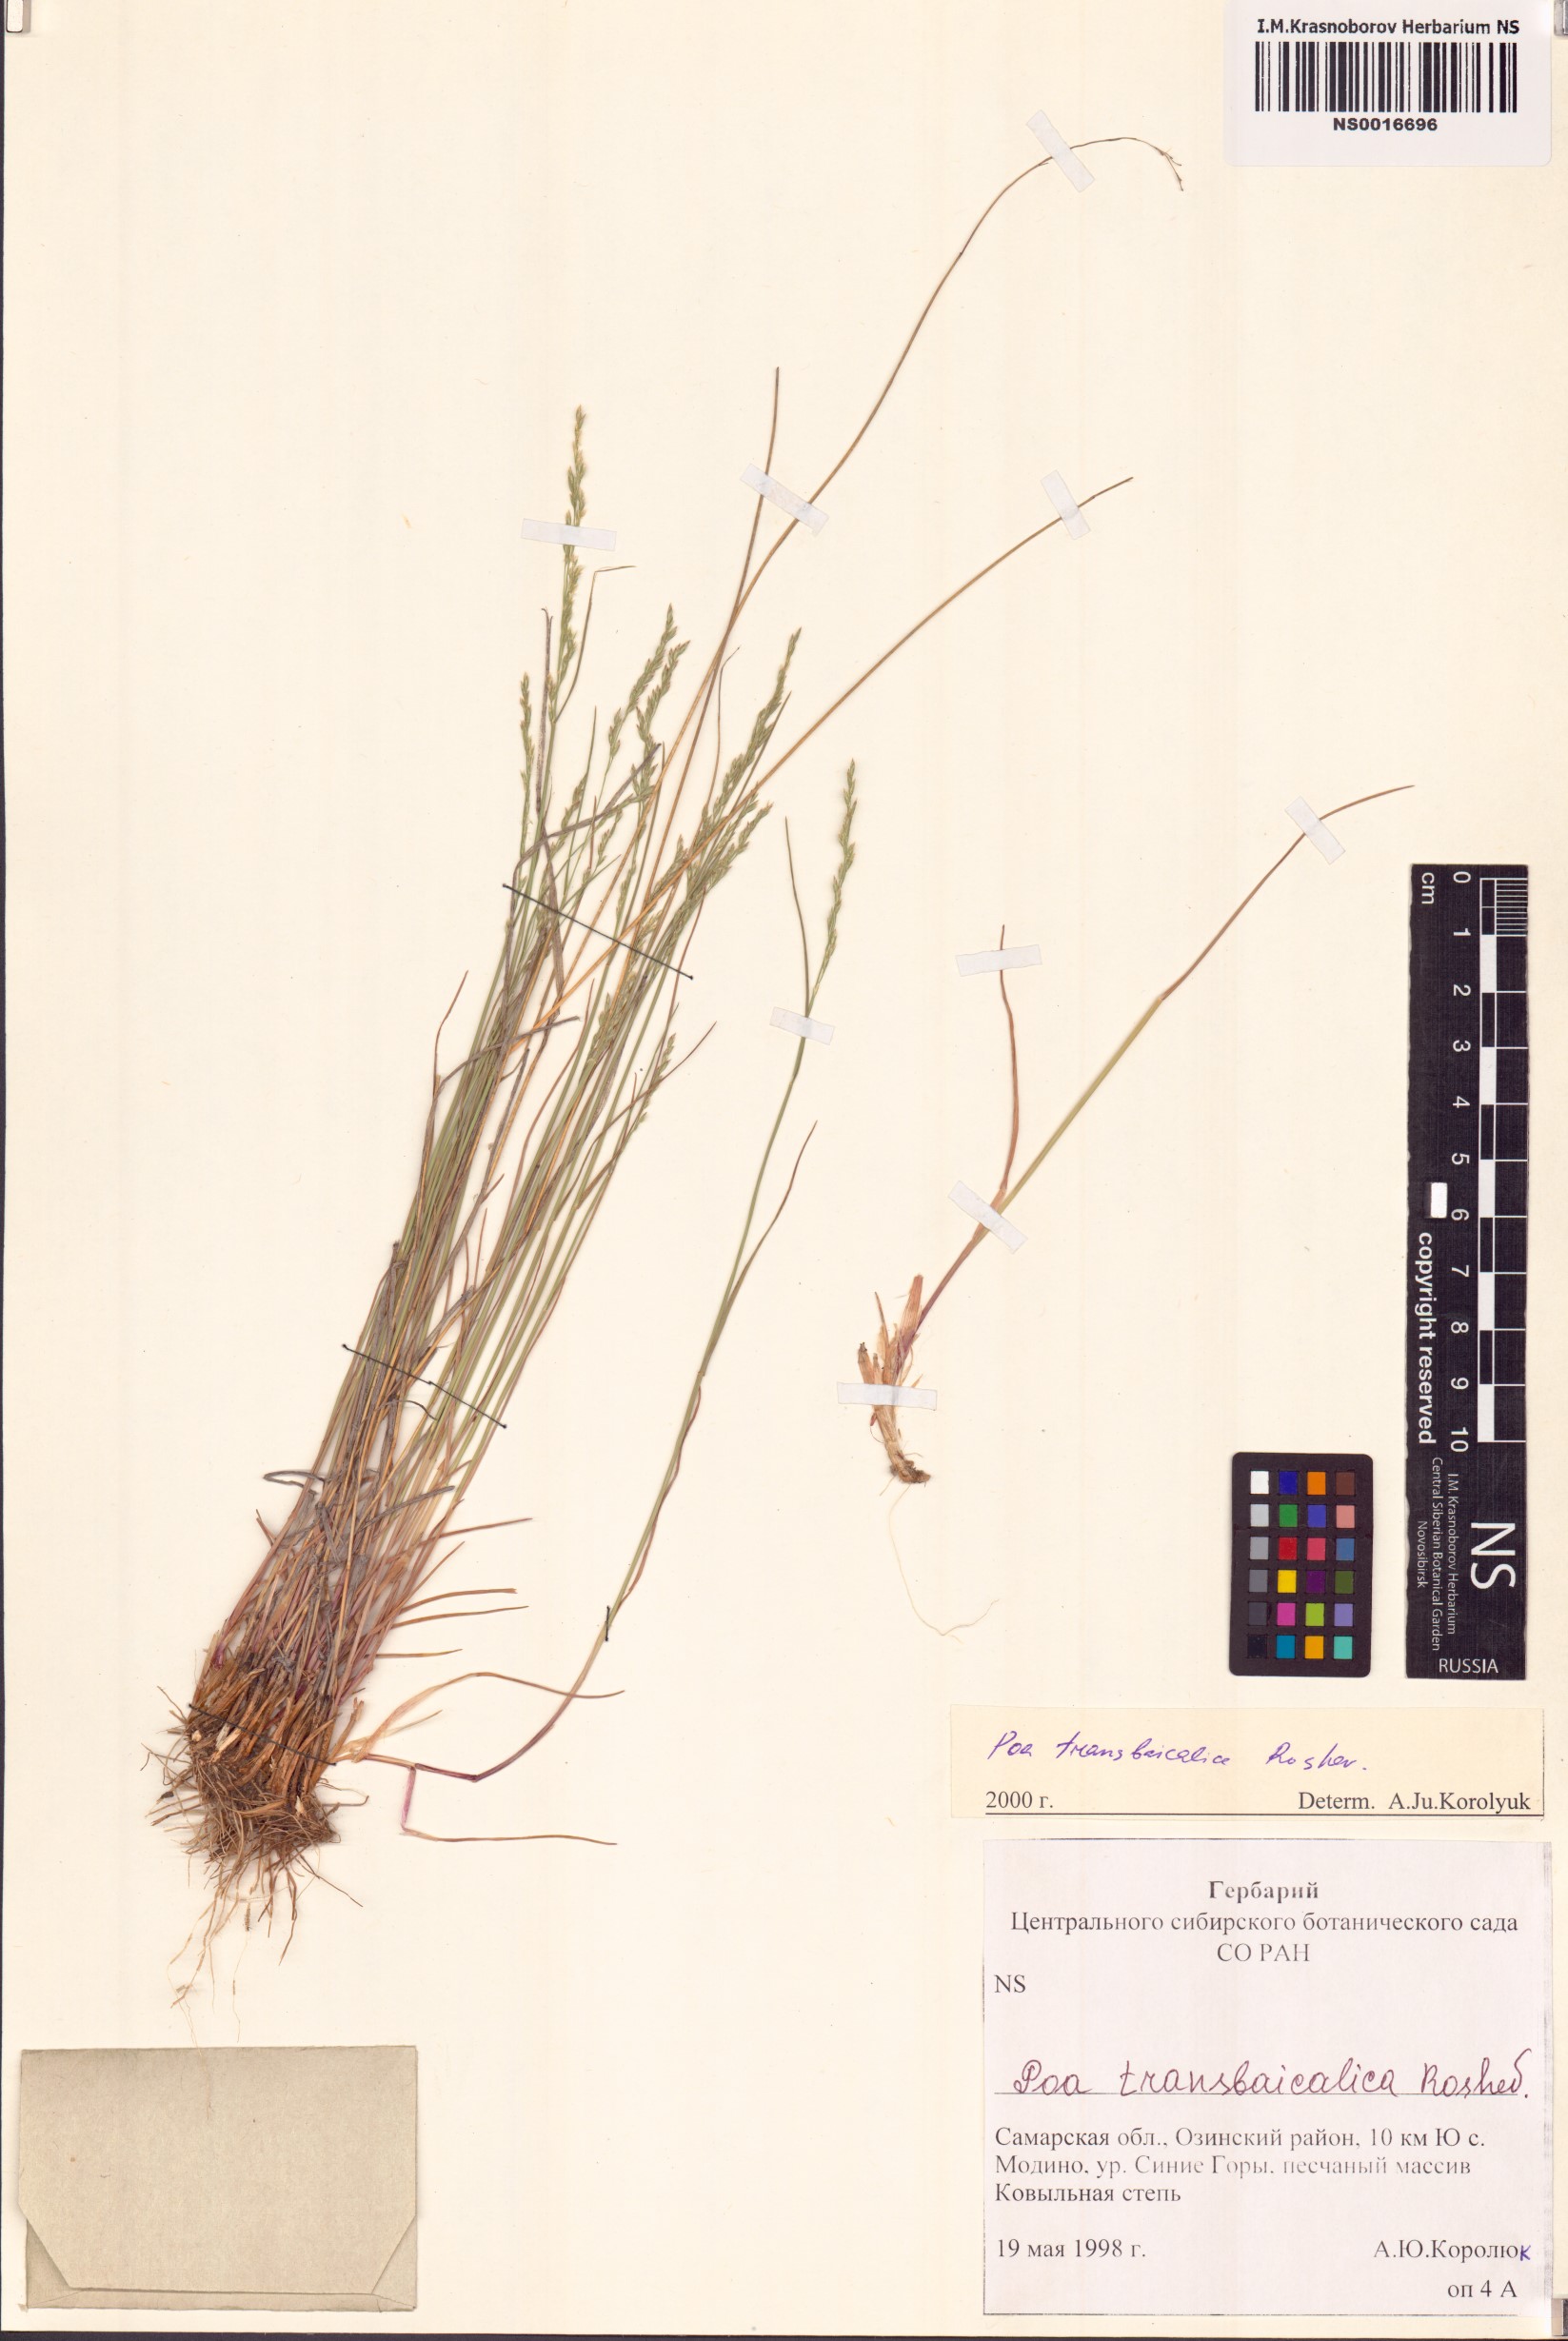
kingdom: Plantae
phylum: Tracheophyta
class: Liliopsida
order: Poales
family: Poaceae
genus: Poa
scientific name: Poa versicolor
